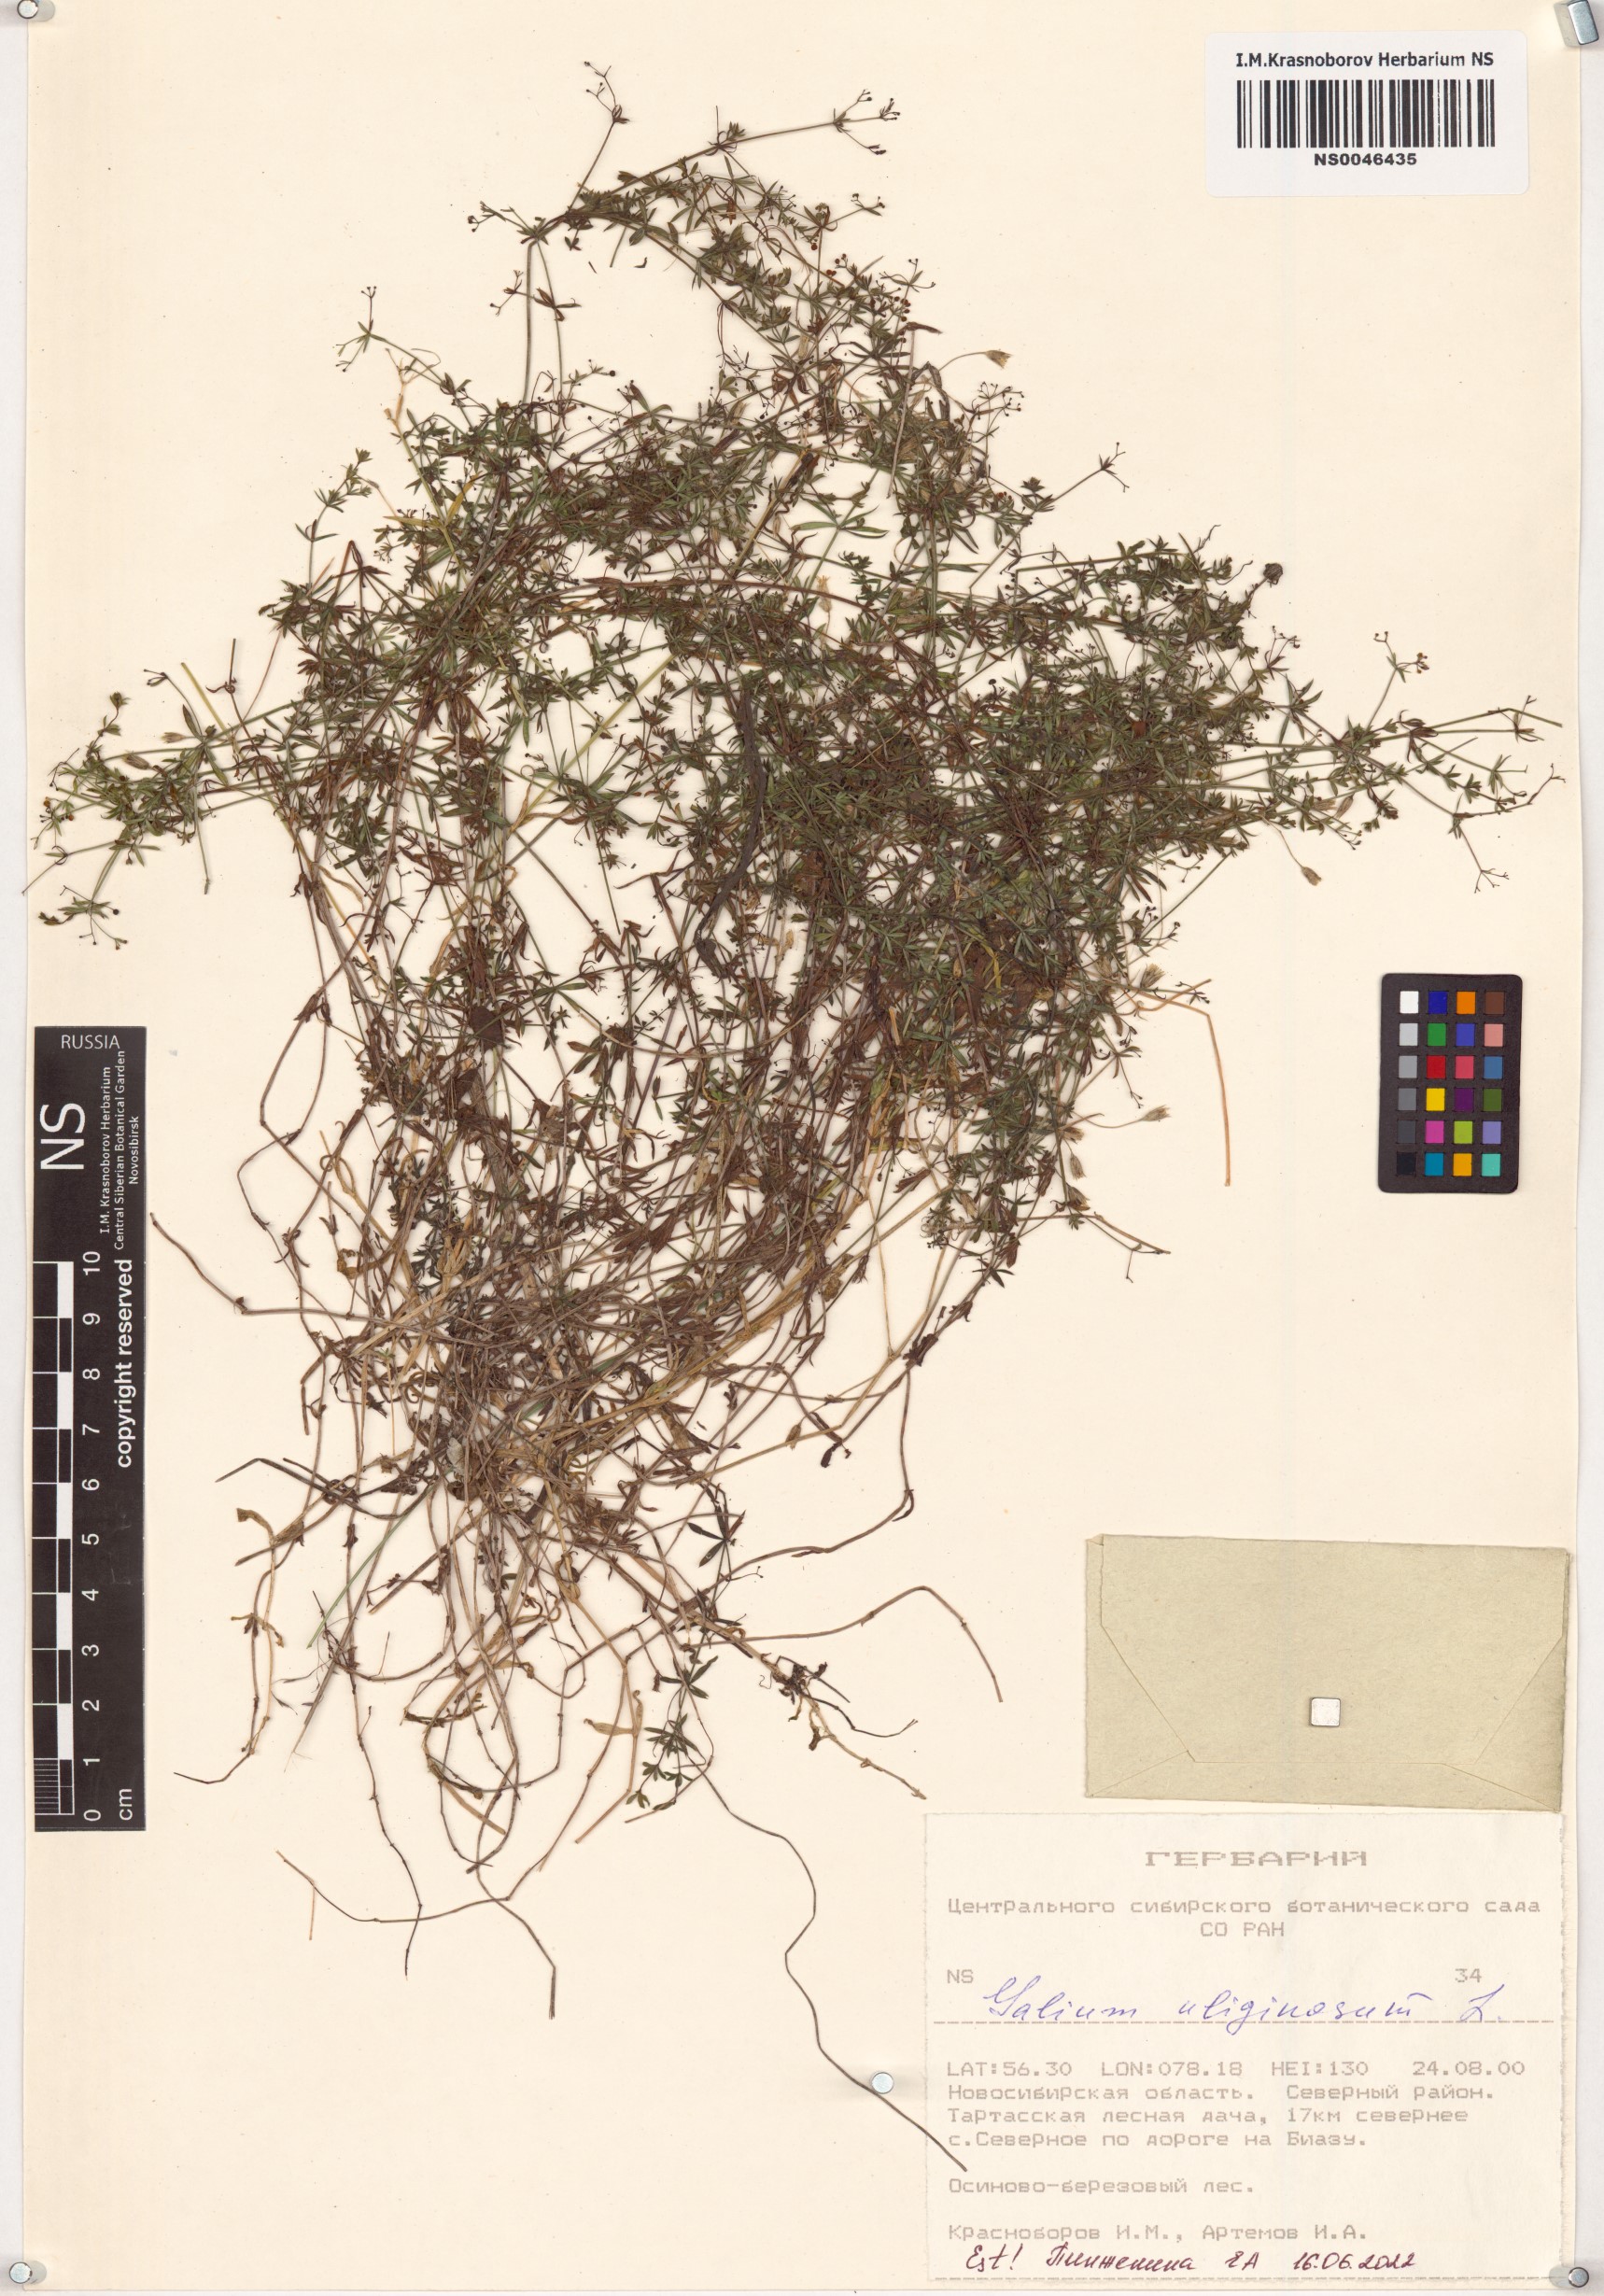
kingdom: Plantae
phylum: Tracheophyta
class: Magnoliopsida
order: Gentianales
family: Rubiaceae
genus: Galium
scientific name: Galium uliginosum
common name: Fen bedstraw
